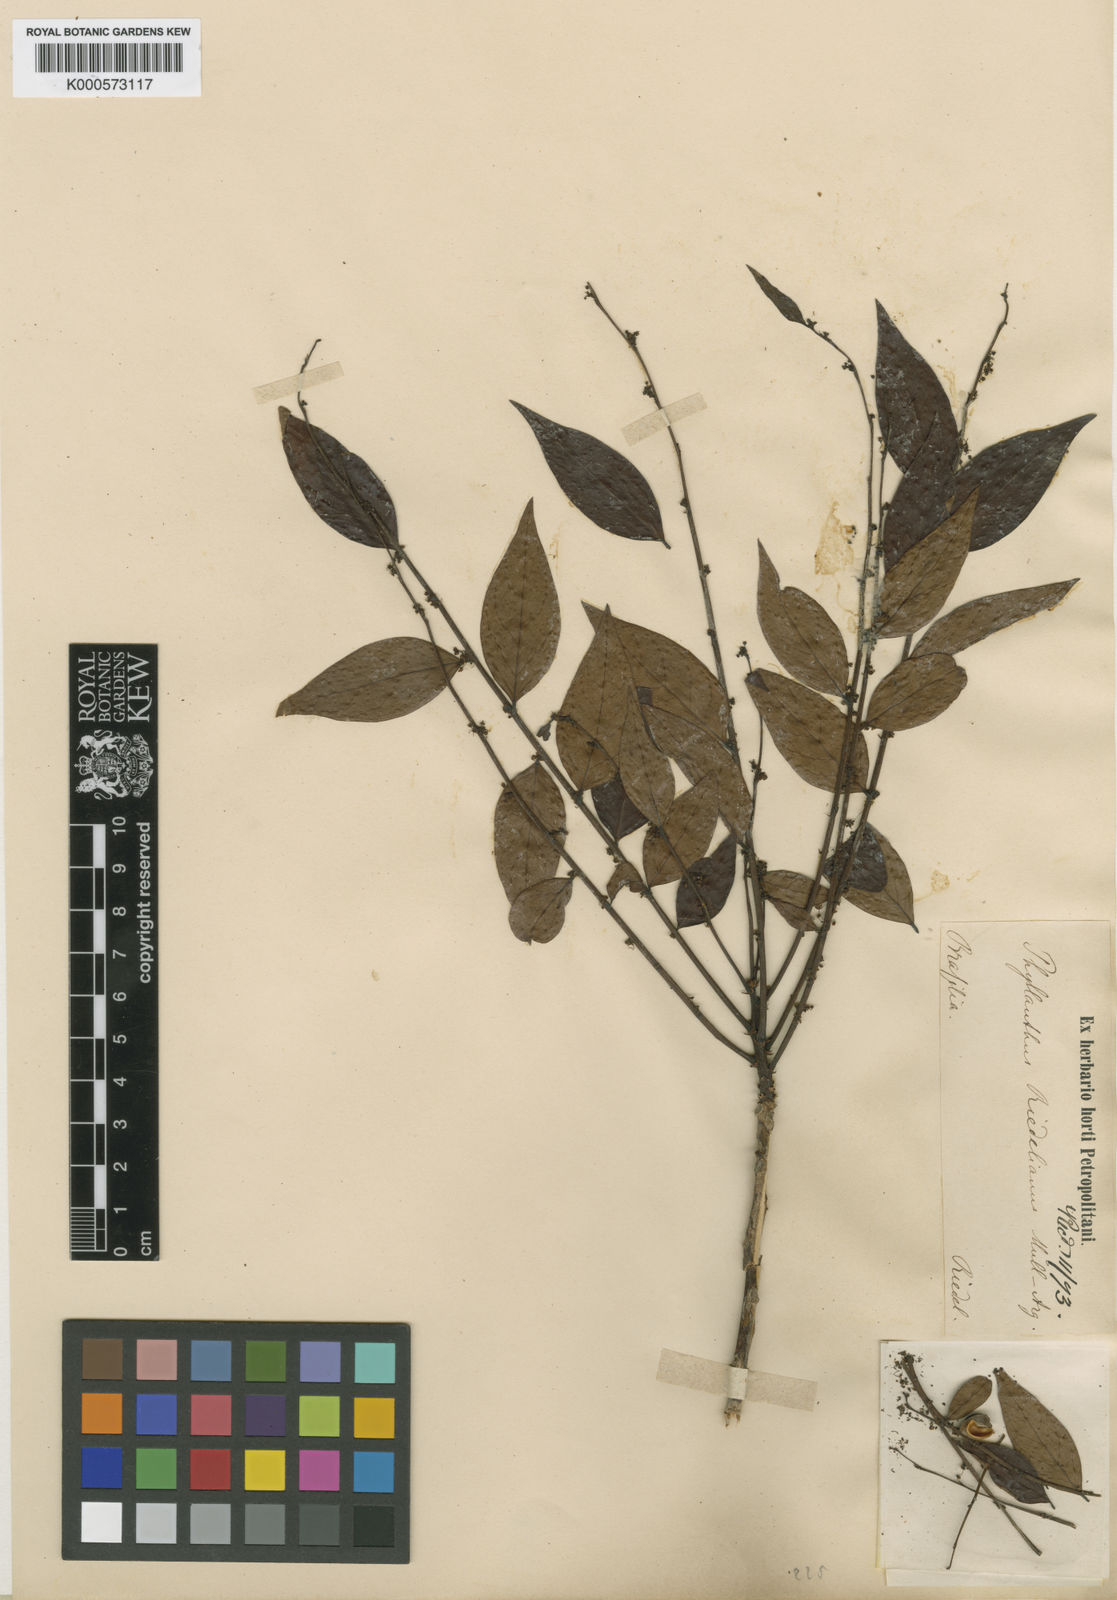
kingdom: Plantae
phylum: Tracheophyta
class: Magnoliopsida
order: Malpighiales
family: Phyllanthaceae
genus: Phyllanthus
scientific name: Phyllanthus
